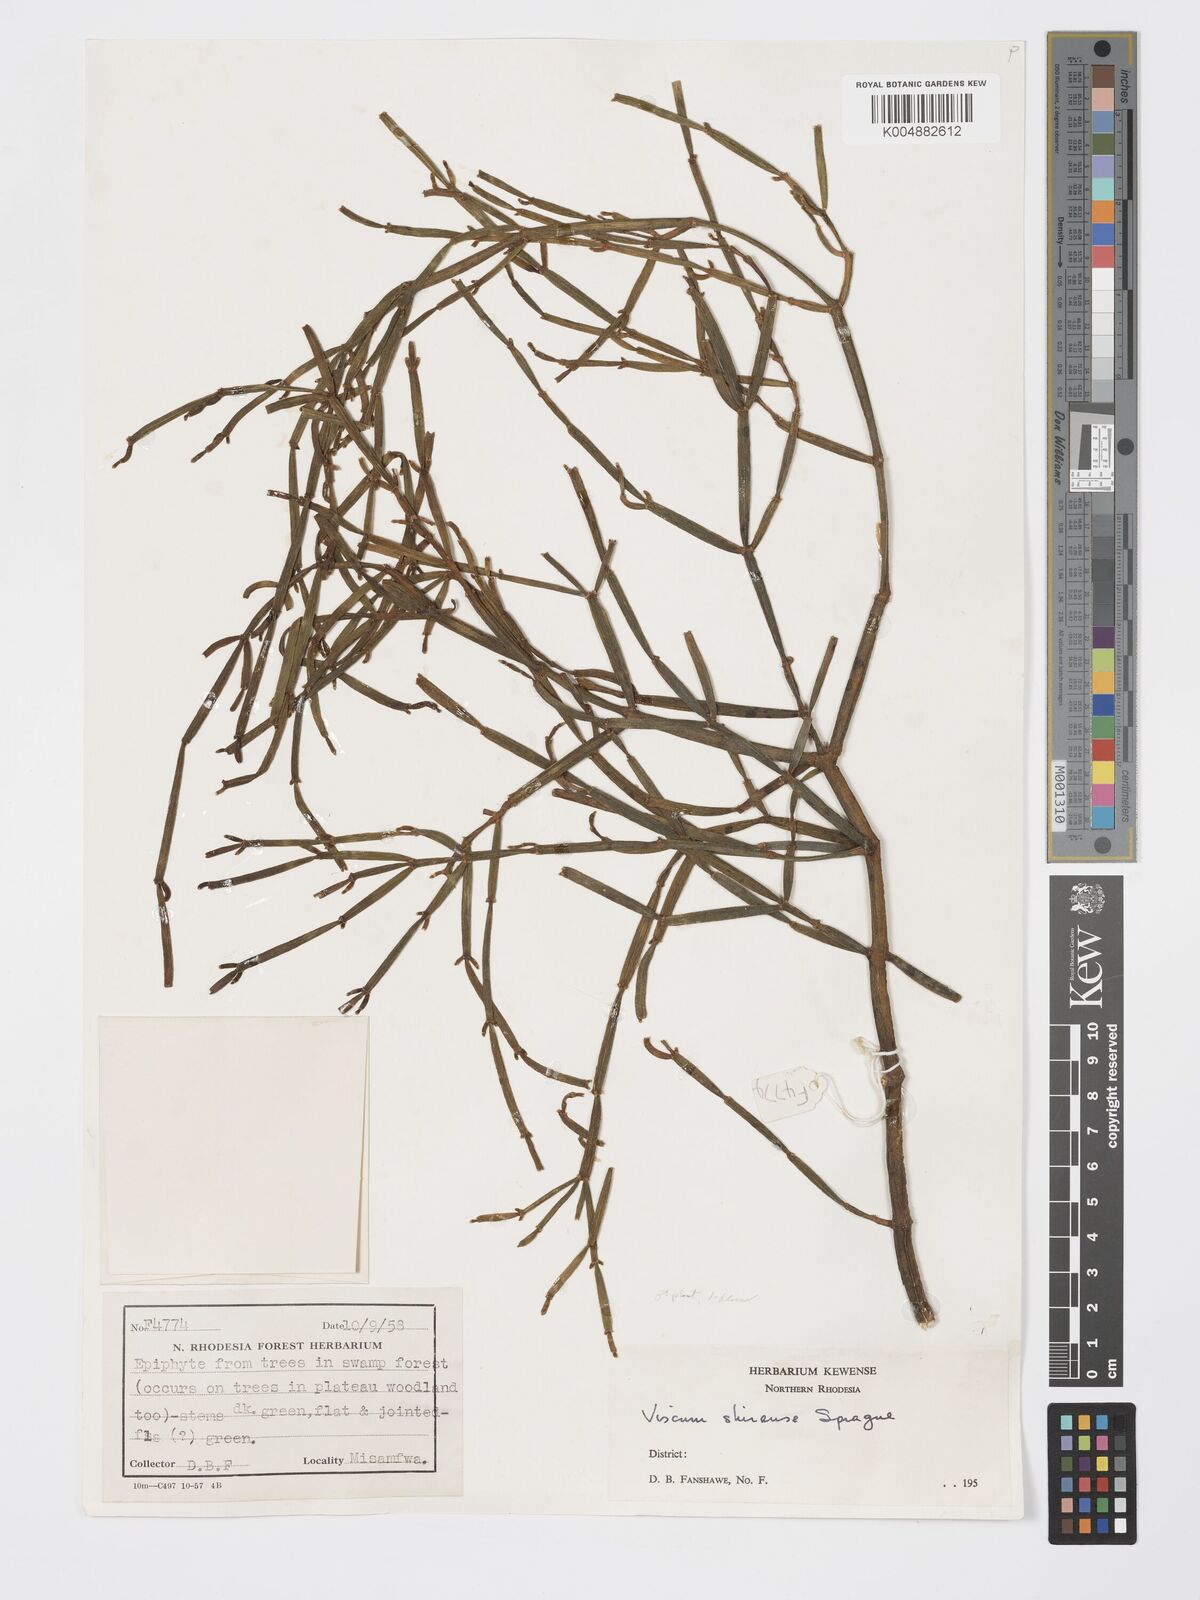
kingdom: Plantae
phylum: Tracheophyta
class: Magnoliopsida
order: Santalales
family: Viscaceae
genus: Viscum
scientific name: Viscum junodii
